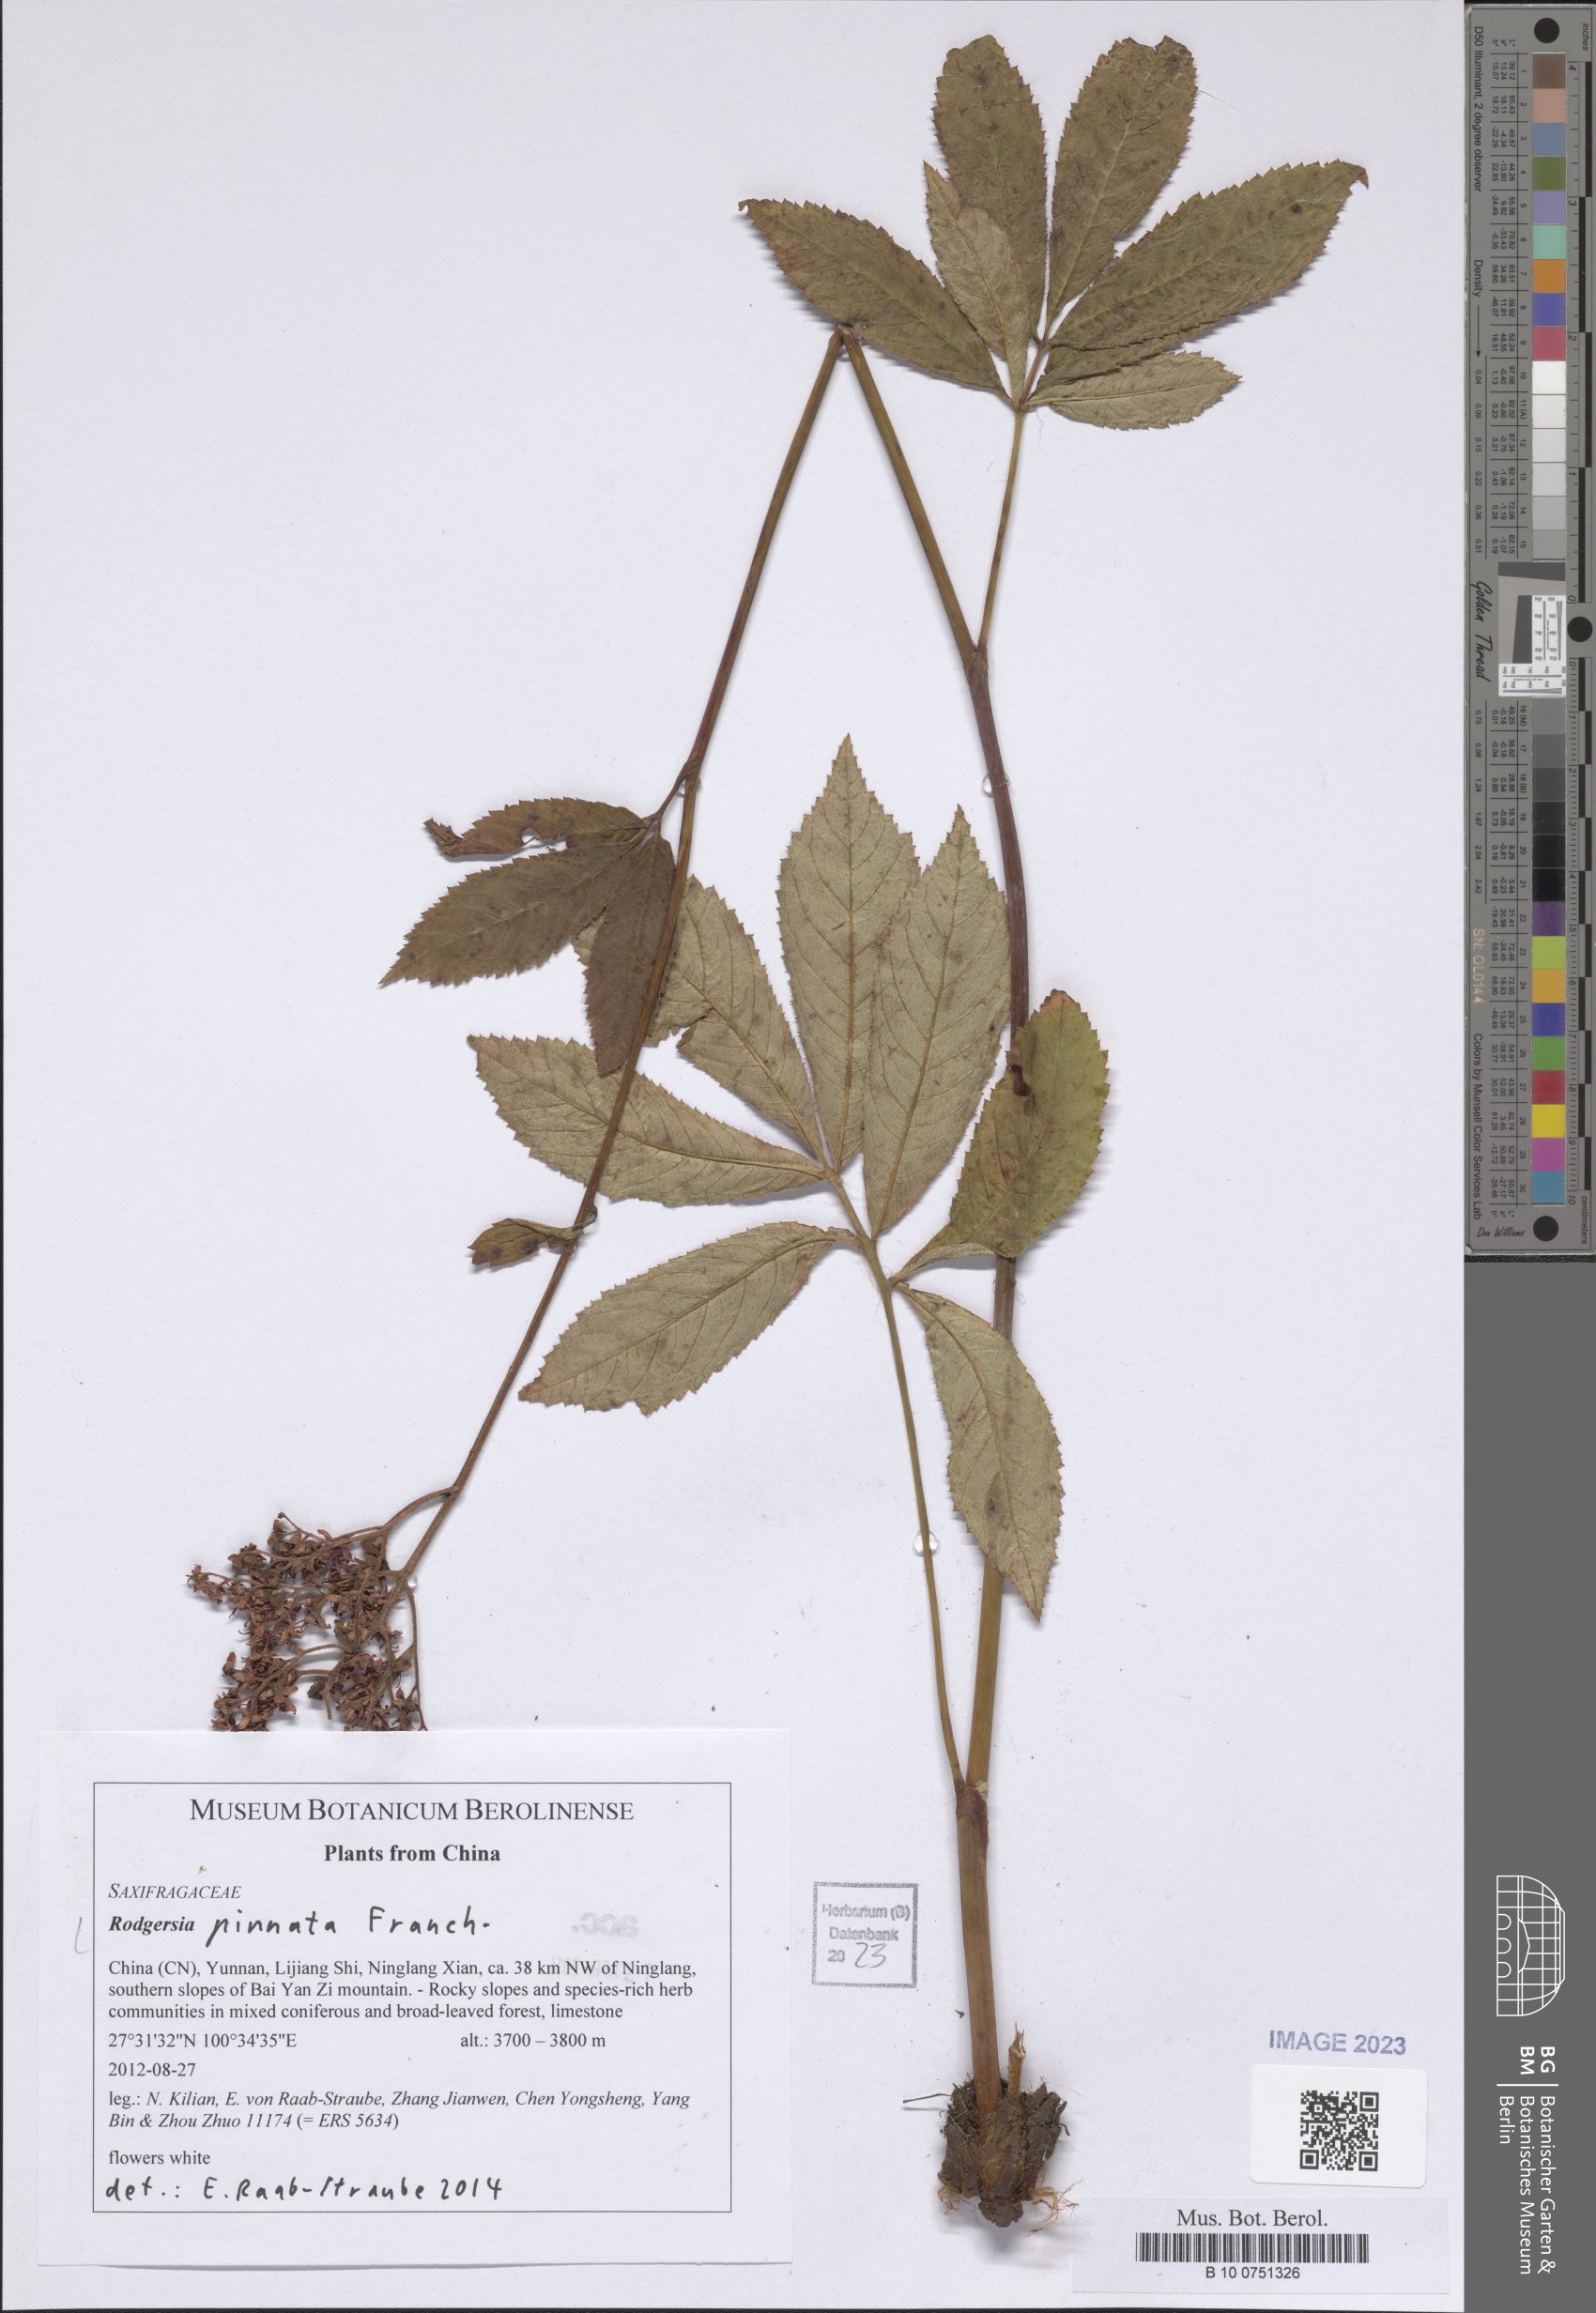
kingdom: Plantae
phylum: Tracheophyta
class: Magnoliopsida
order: Saxifragales
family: Saxifragaceae
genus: Rodgersia
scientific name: Rodgersia pinnata
